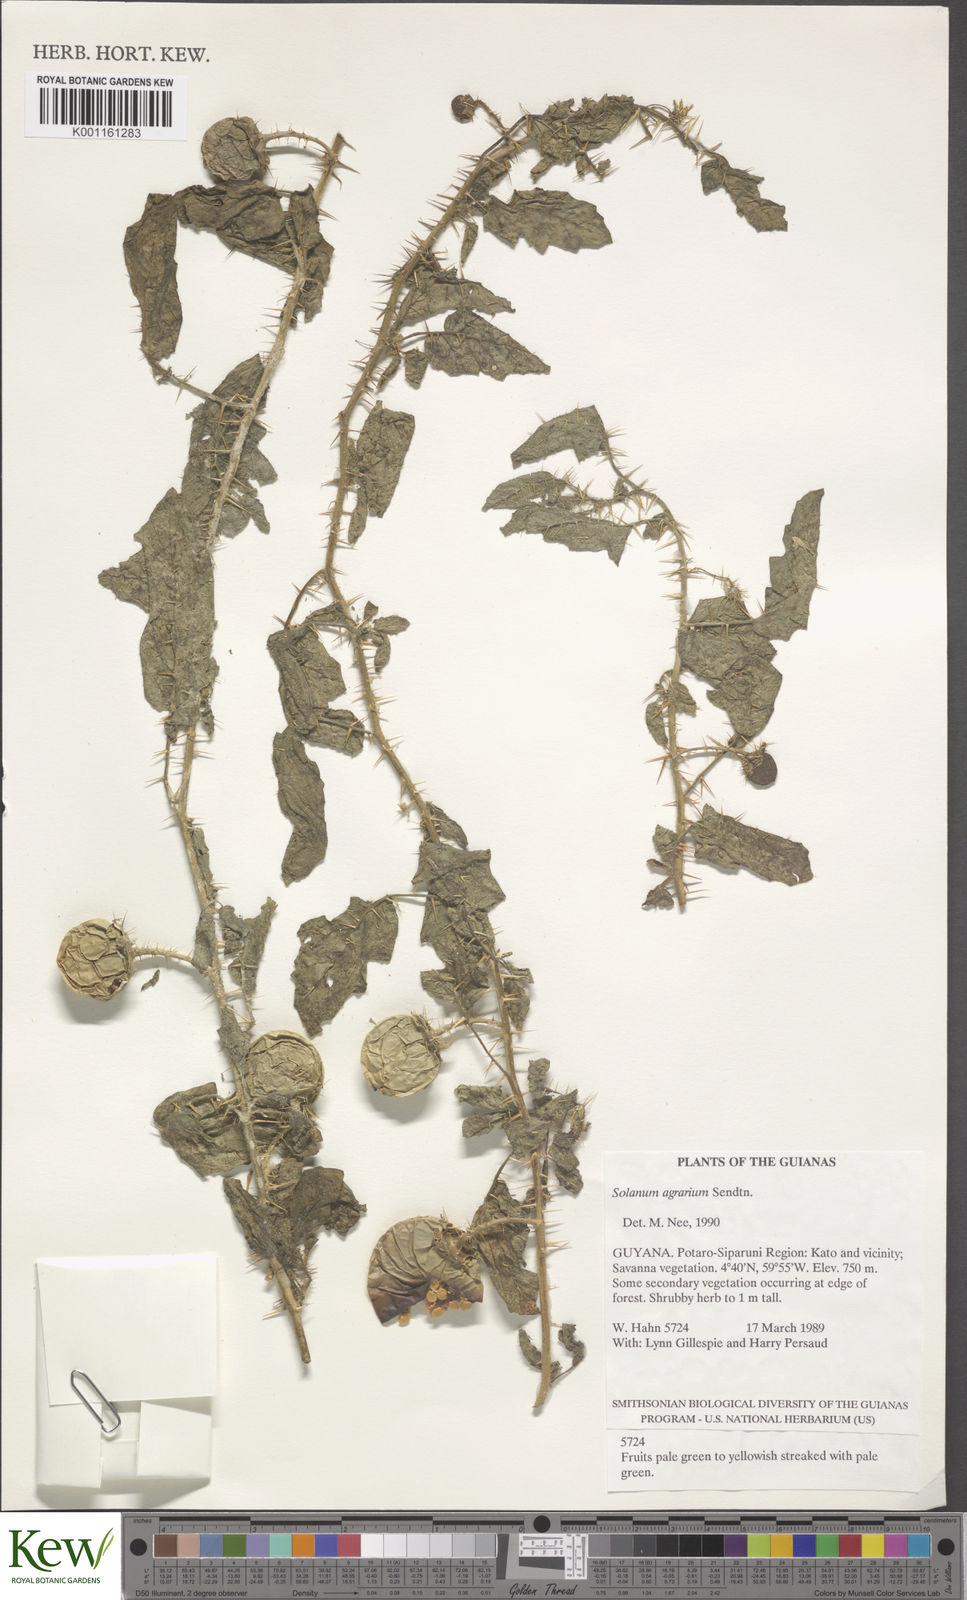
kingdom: Plantae
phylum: Tracheophyta
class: Magnoliopsida
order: Solanales
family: Solanaceae
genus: Solanum
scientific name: Solanum agrarium
